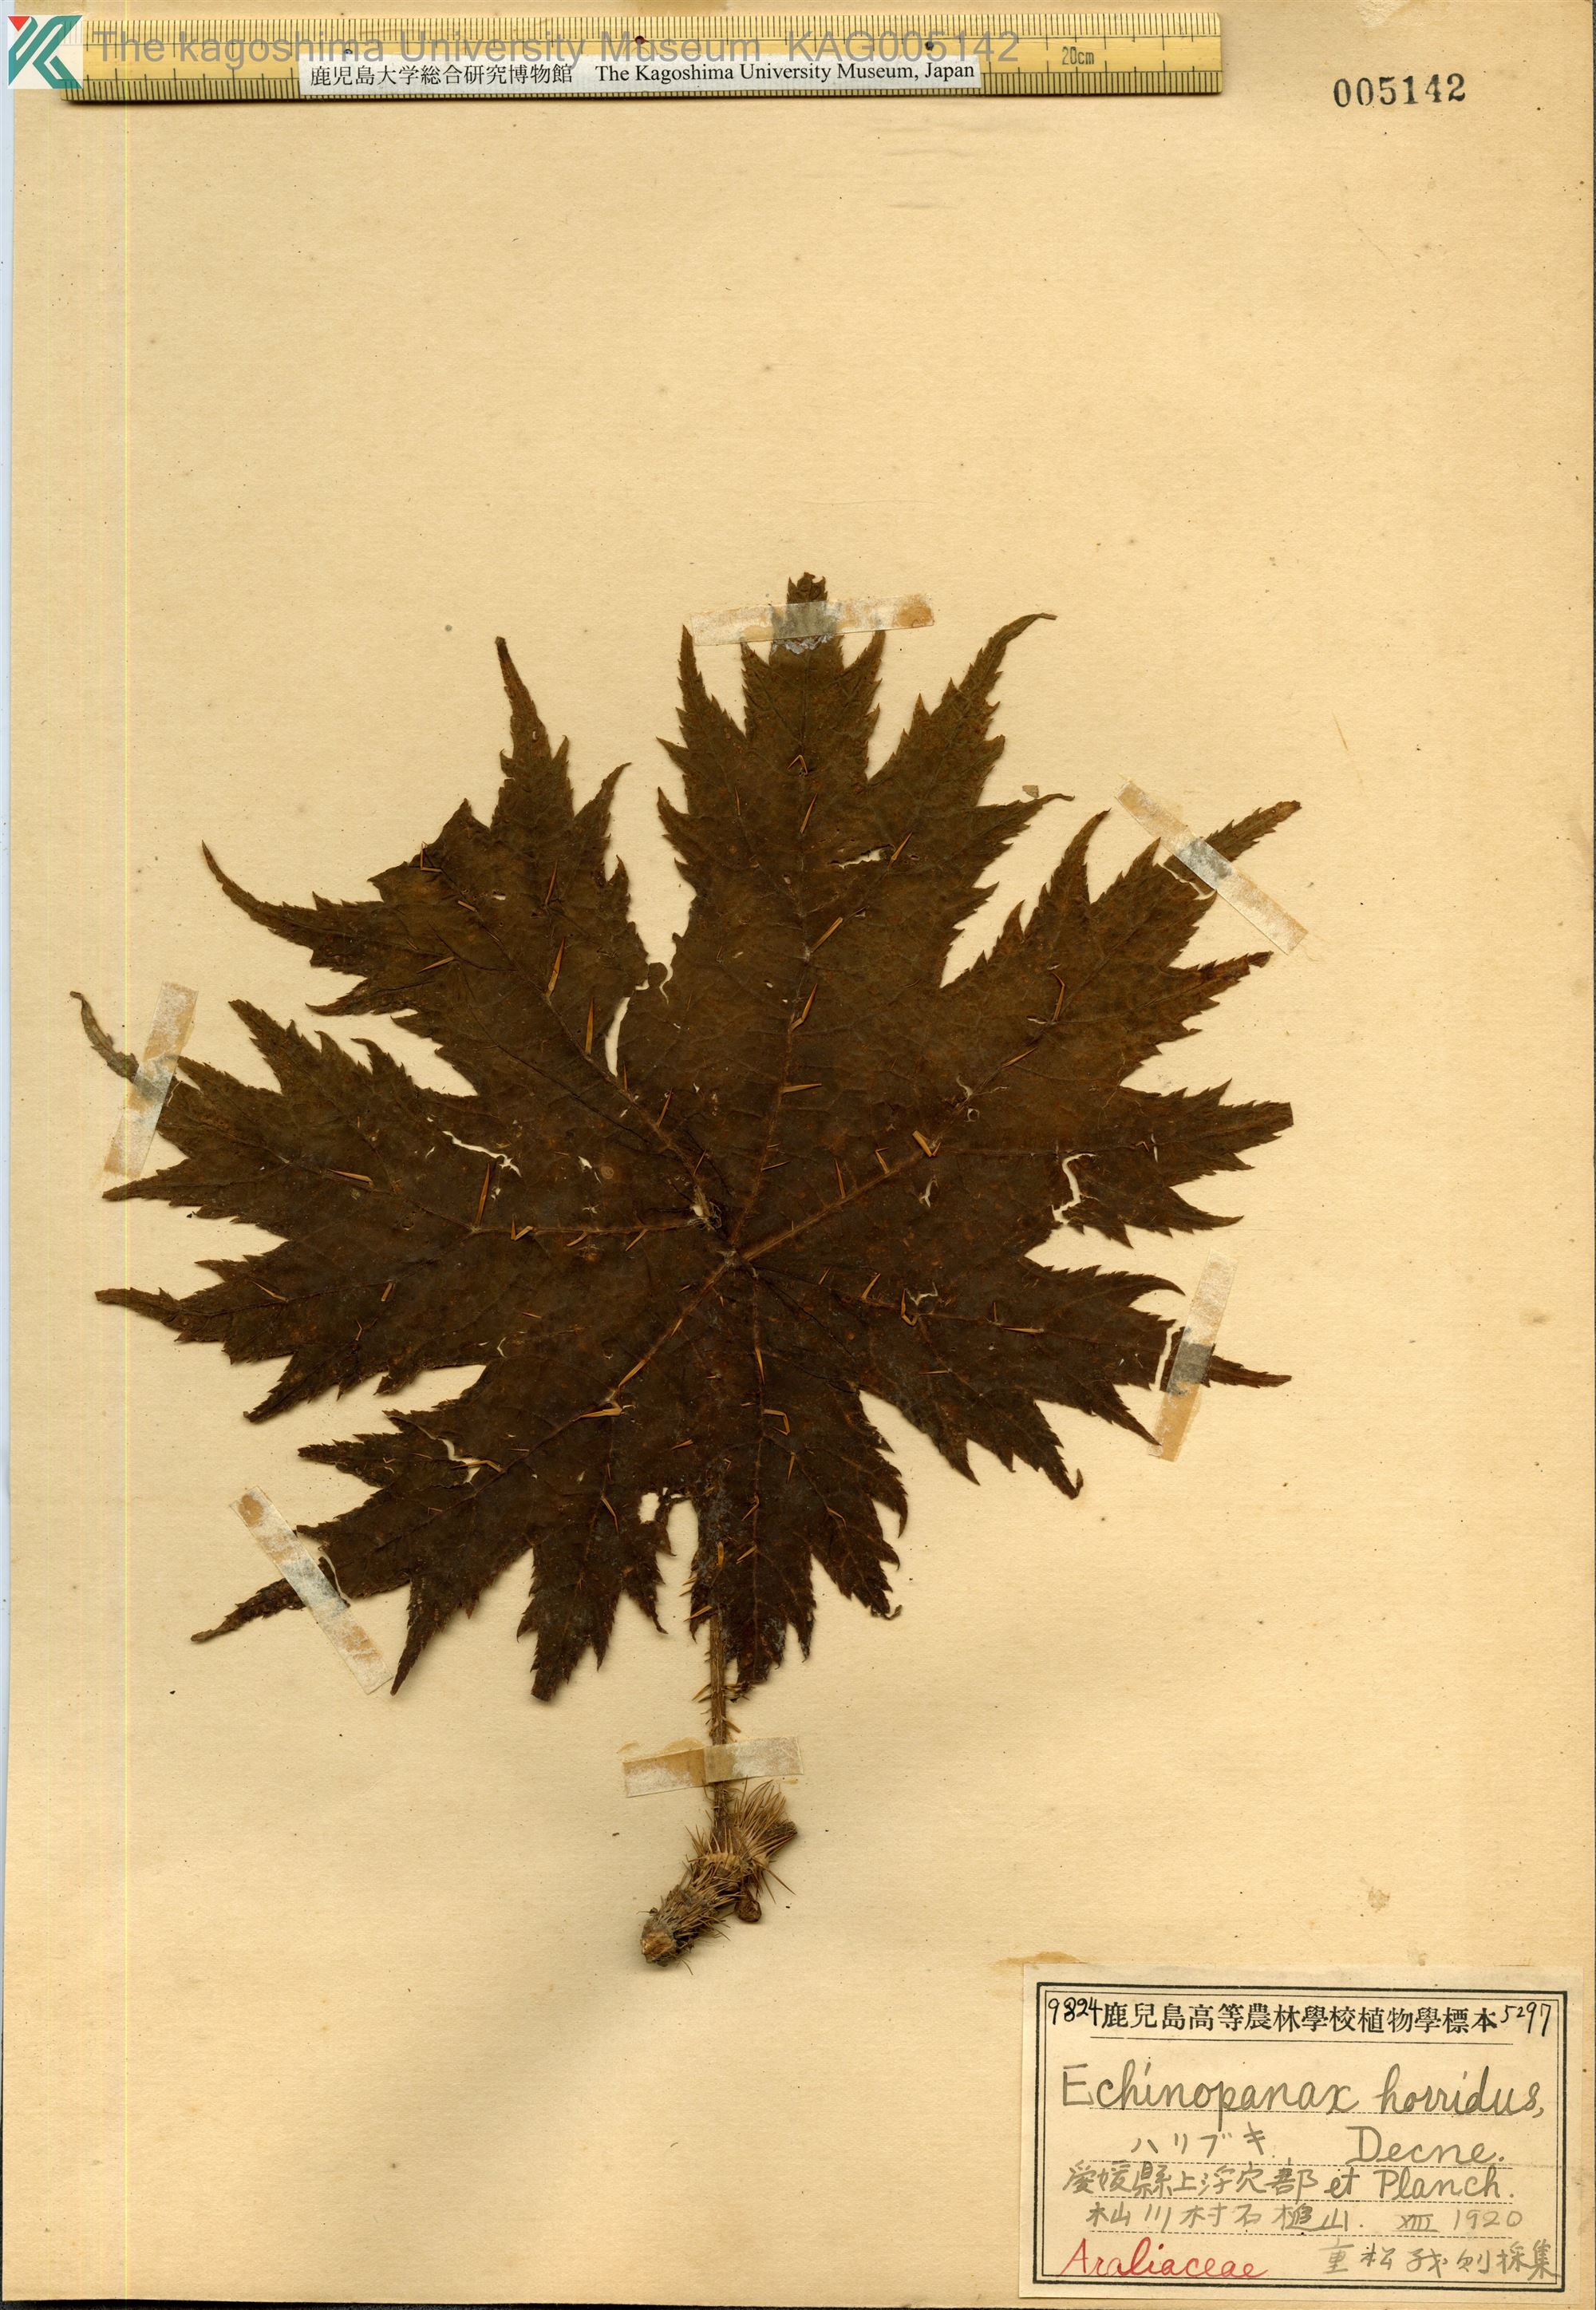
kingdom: Plantae
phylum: Tracheophyta
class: Magnoliopsida
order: Apiales
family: Araliaceae
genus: Oplopanax
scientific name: Oplopanax japonicus
